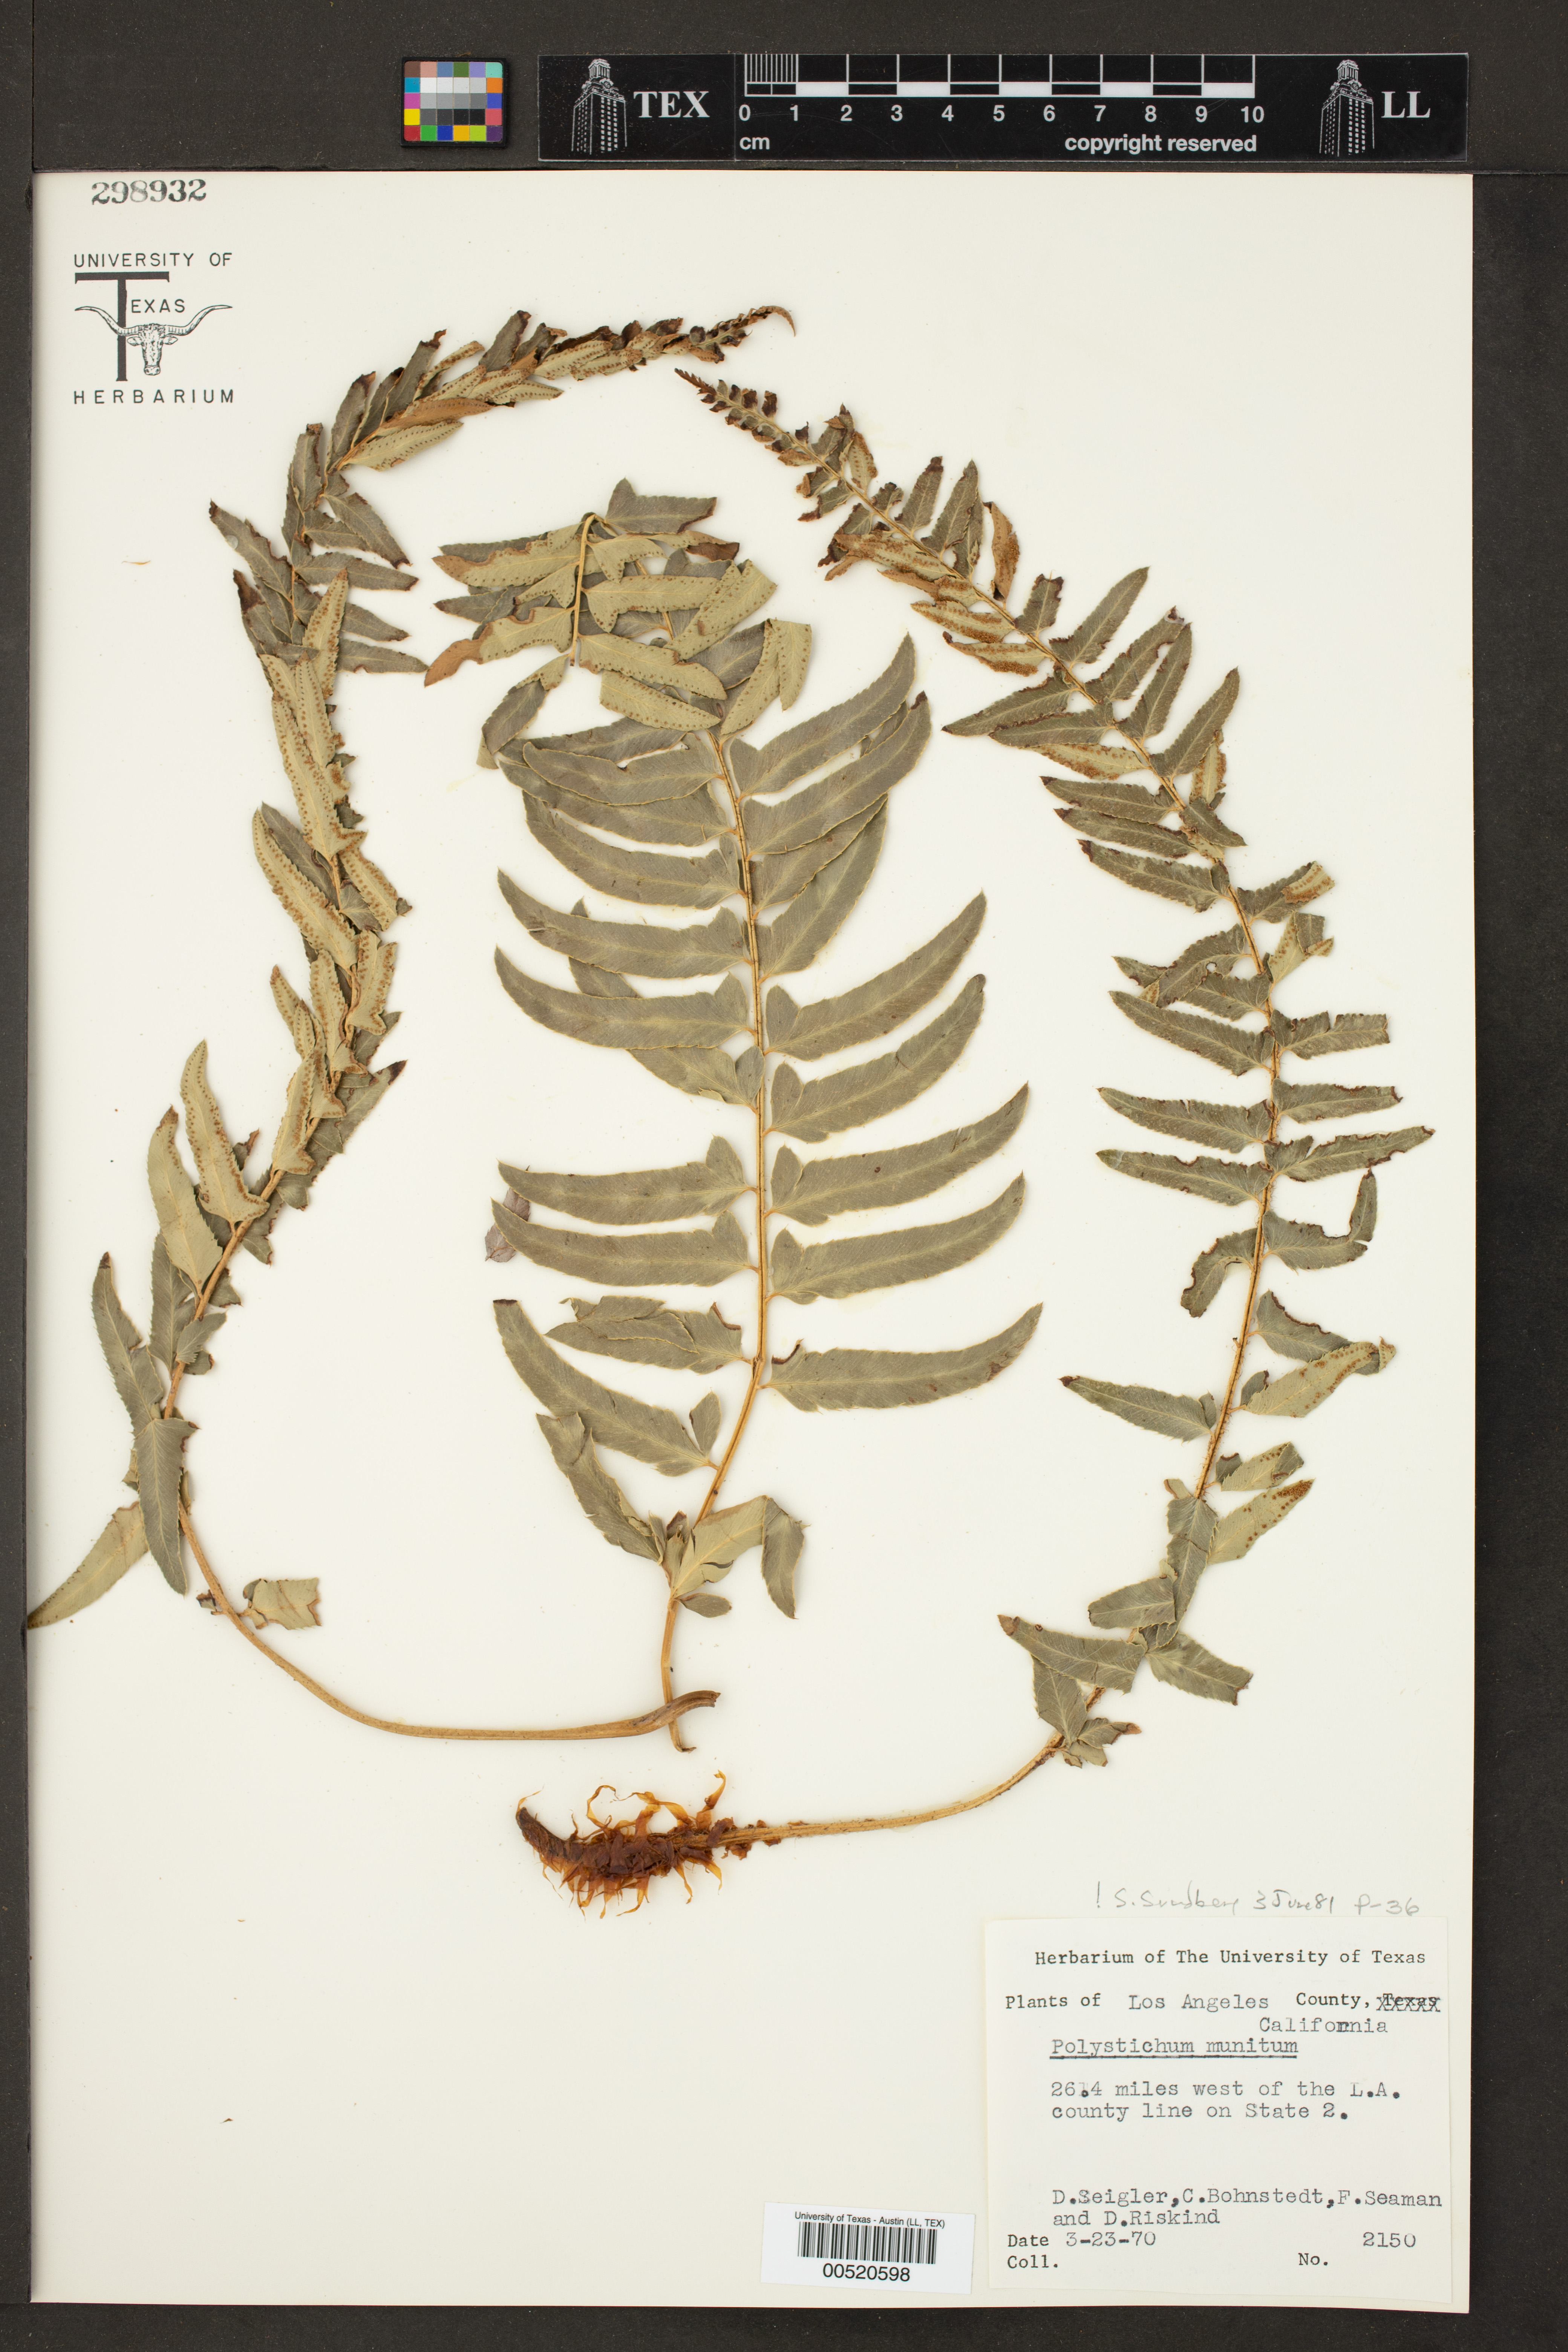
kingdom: Plantae
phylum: Tracheophyta
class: Polypodiopsida
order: Polypodiales
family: Dryopteridaceae
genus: Polystichum
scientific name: Polystichum munitum
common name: Western sword-fern
